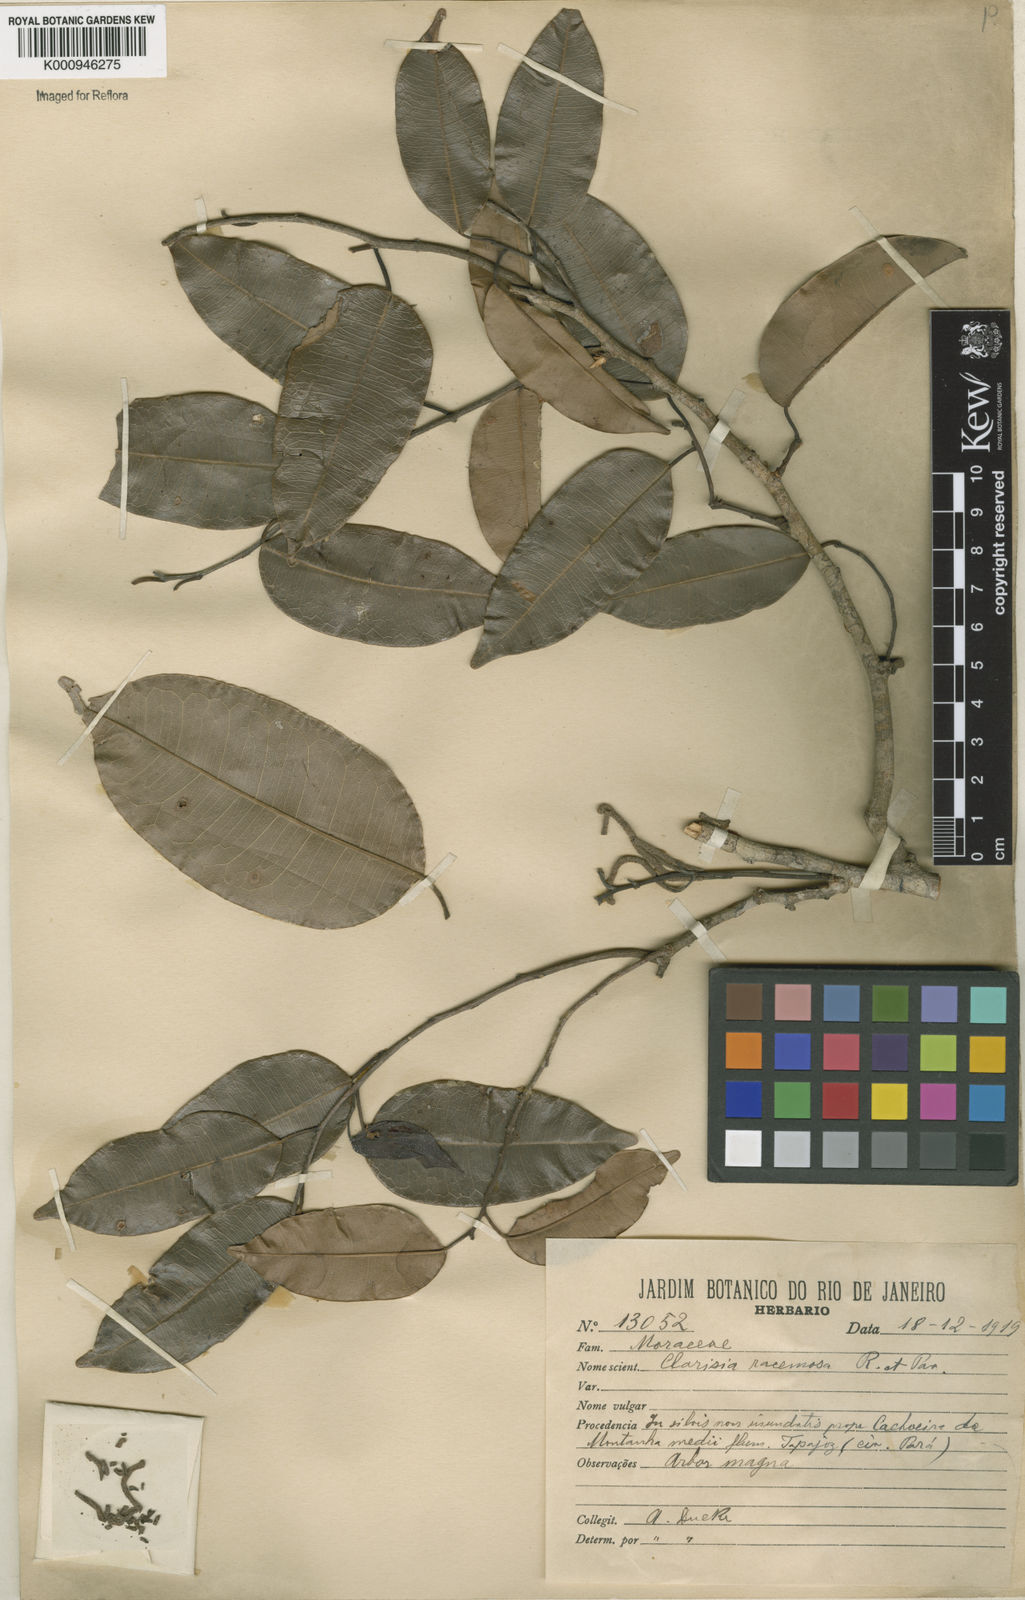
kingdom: Plantae
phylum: Tracheophyta
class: Magnoliopsida
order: Rosales
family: Moraceae
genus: Clarisia
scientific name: Clarisia racemosa
